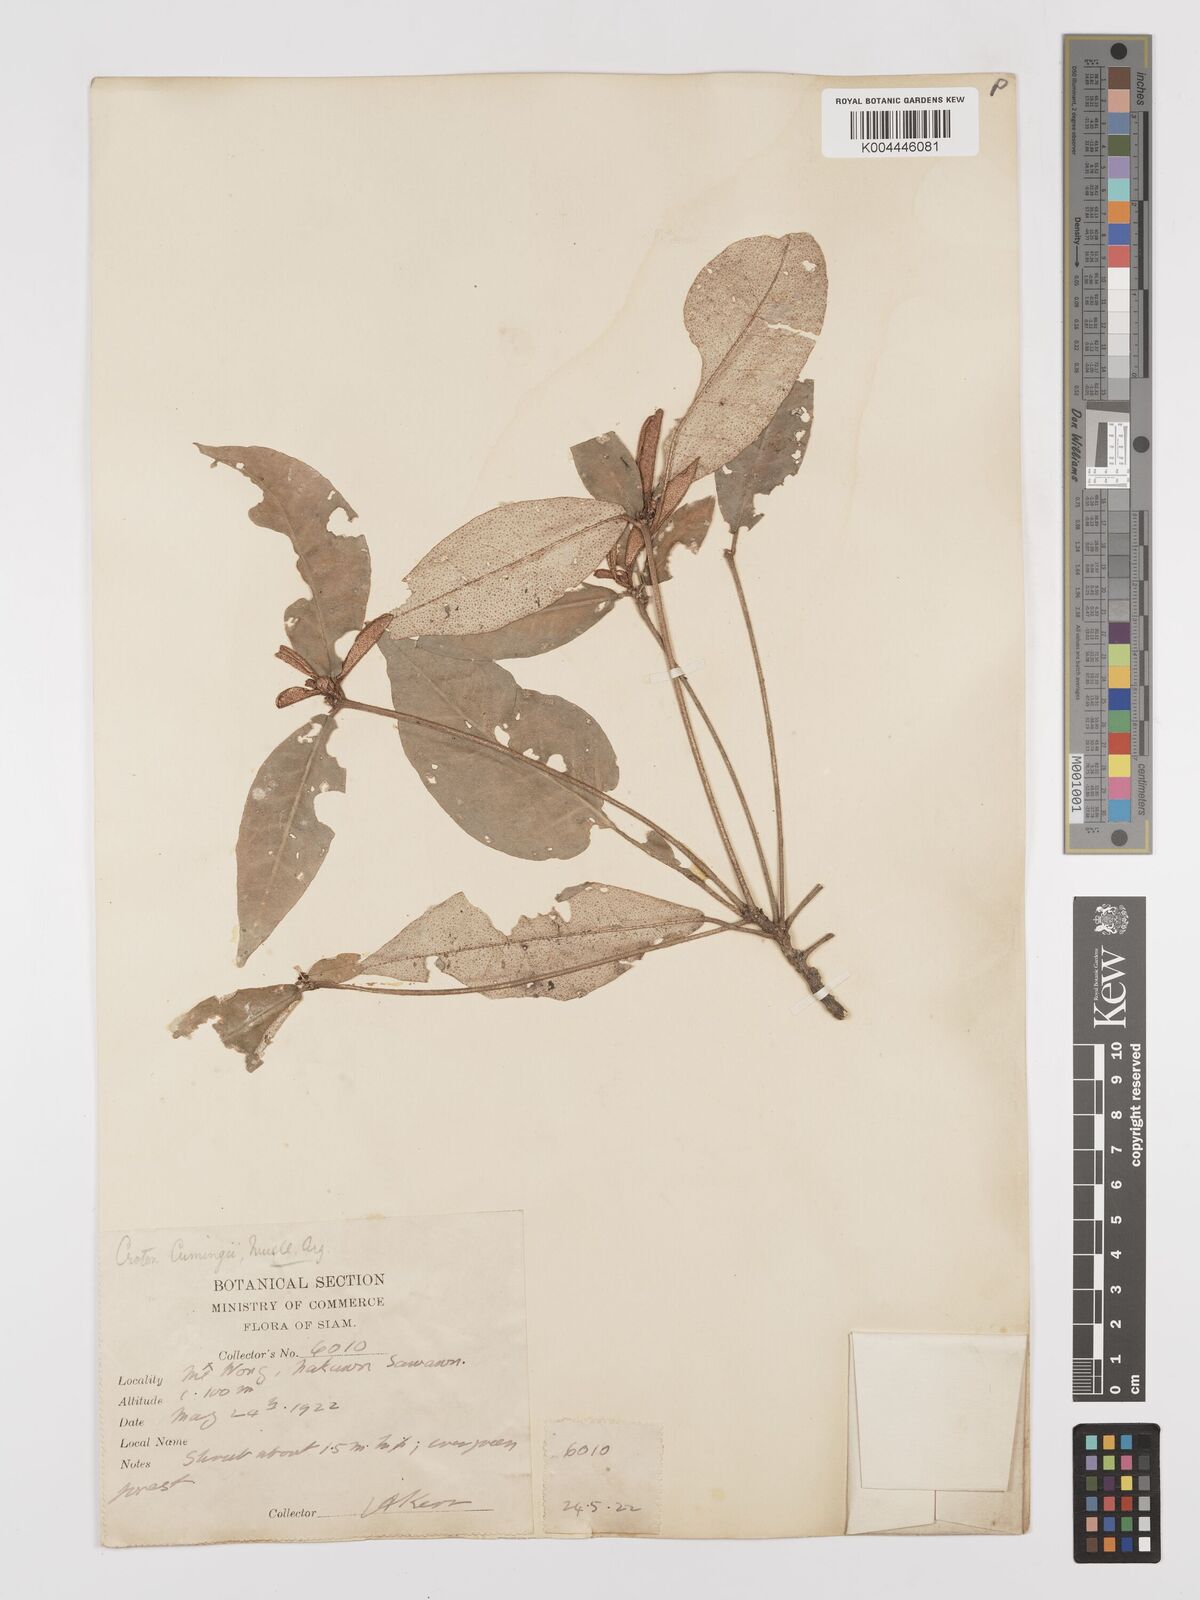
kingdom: Plantae
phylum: Tracheophyta
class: Magnoliopsida
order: Malpighiales
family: Euphorbiaceae
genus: Croton
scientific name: Croton cascarilloides
